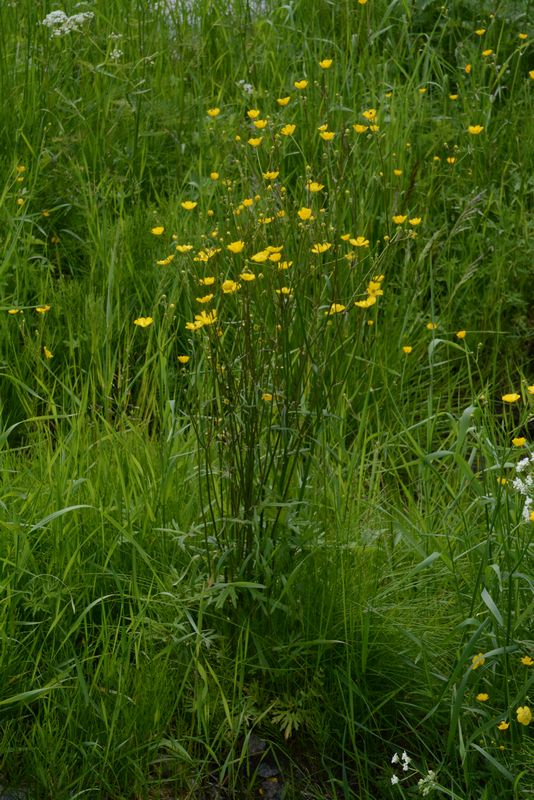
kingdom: Plantae
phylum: Tracheophyta
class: Magnoliopsida
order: Ranunculales
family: Ranunculaceae
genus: Ranunculus
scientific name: Ranunculus acris
